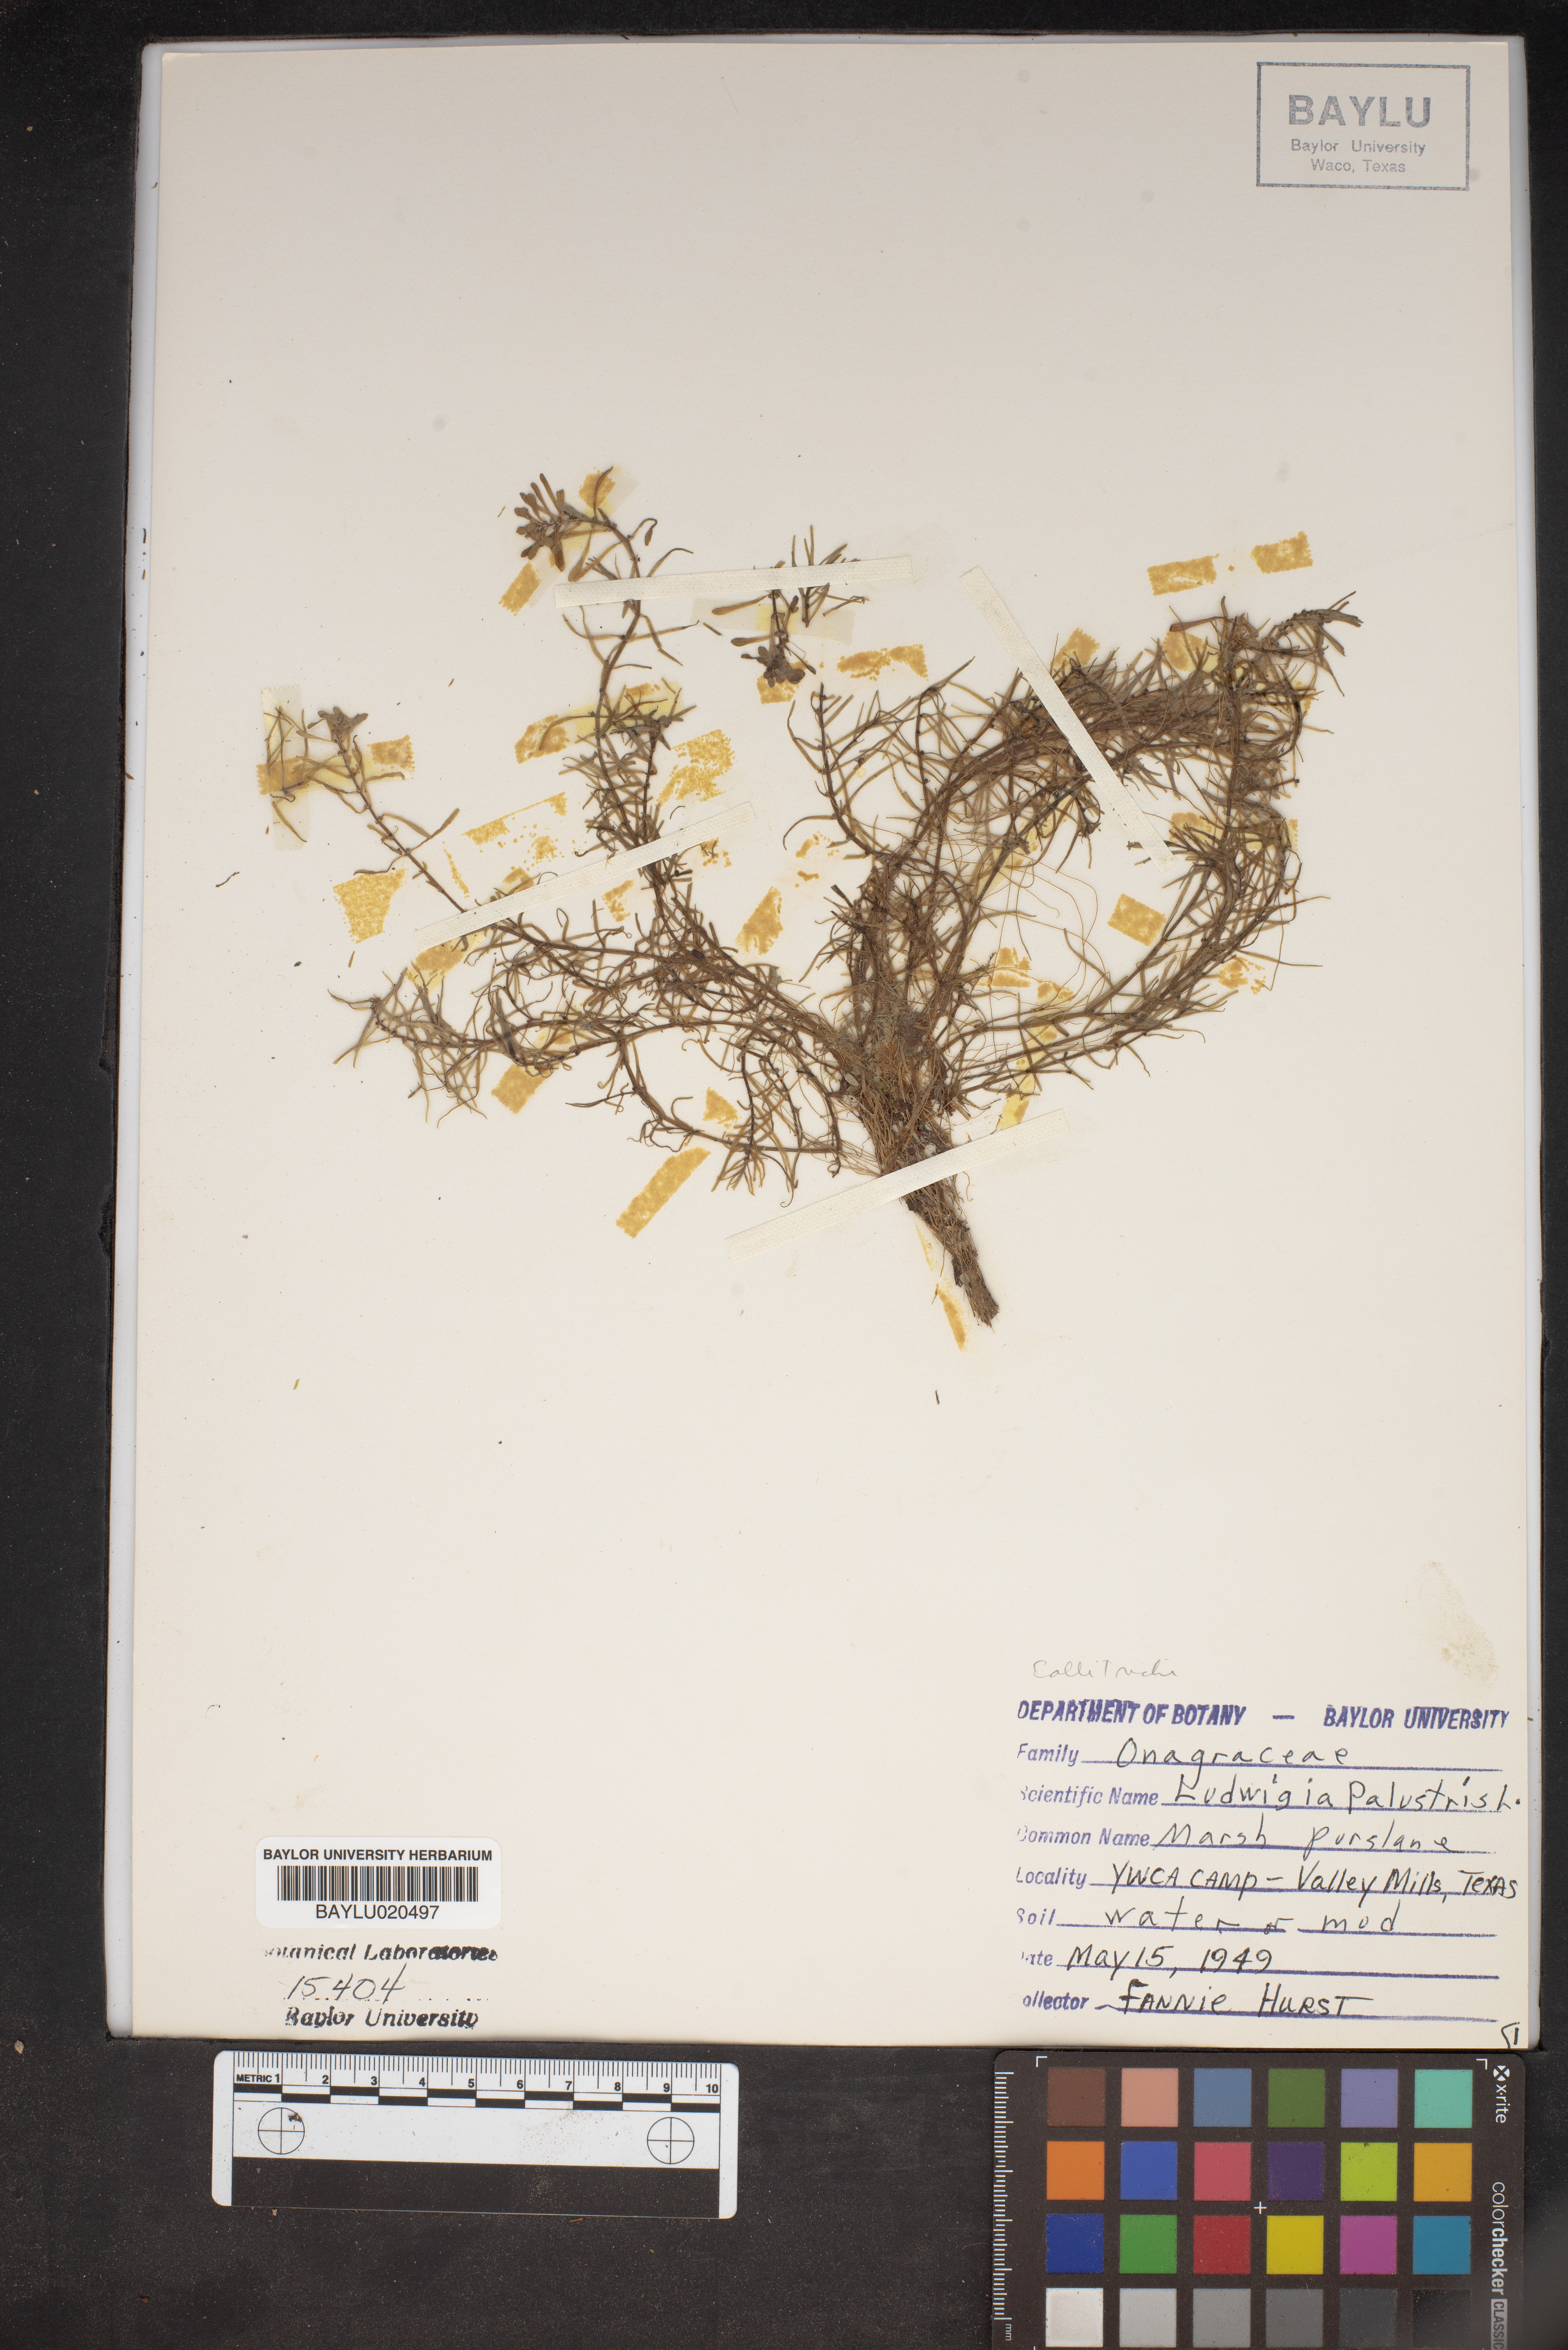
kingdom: Plantae
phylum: Tracheophyta
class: Magnoliopsida
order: Myrtales
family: Onagraceae
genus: Ludwigia
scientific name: Ludwigia palustris
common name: Hampshire-purslane
